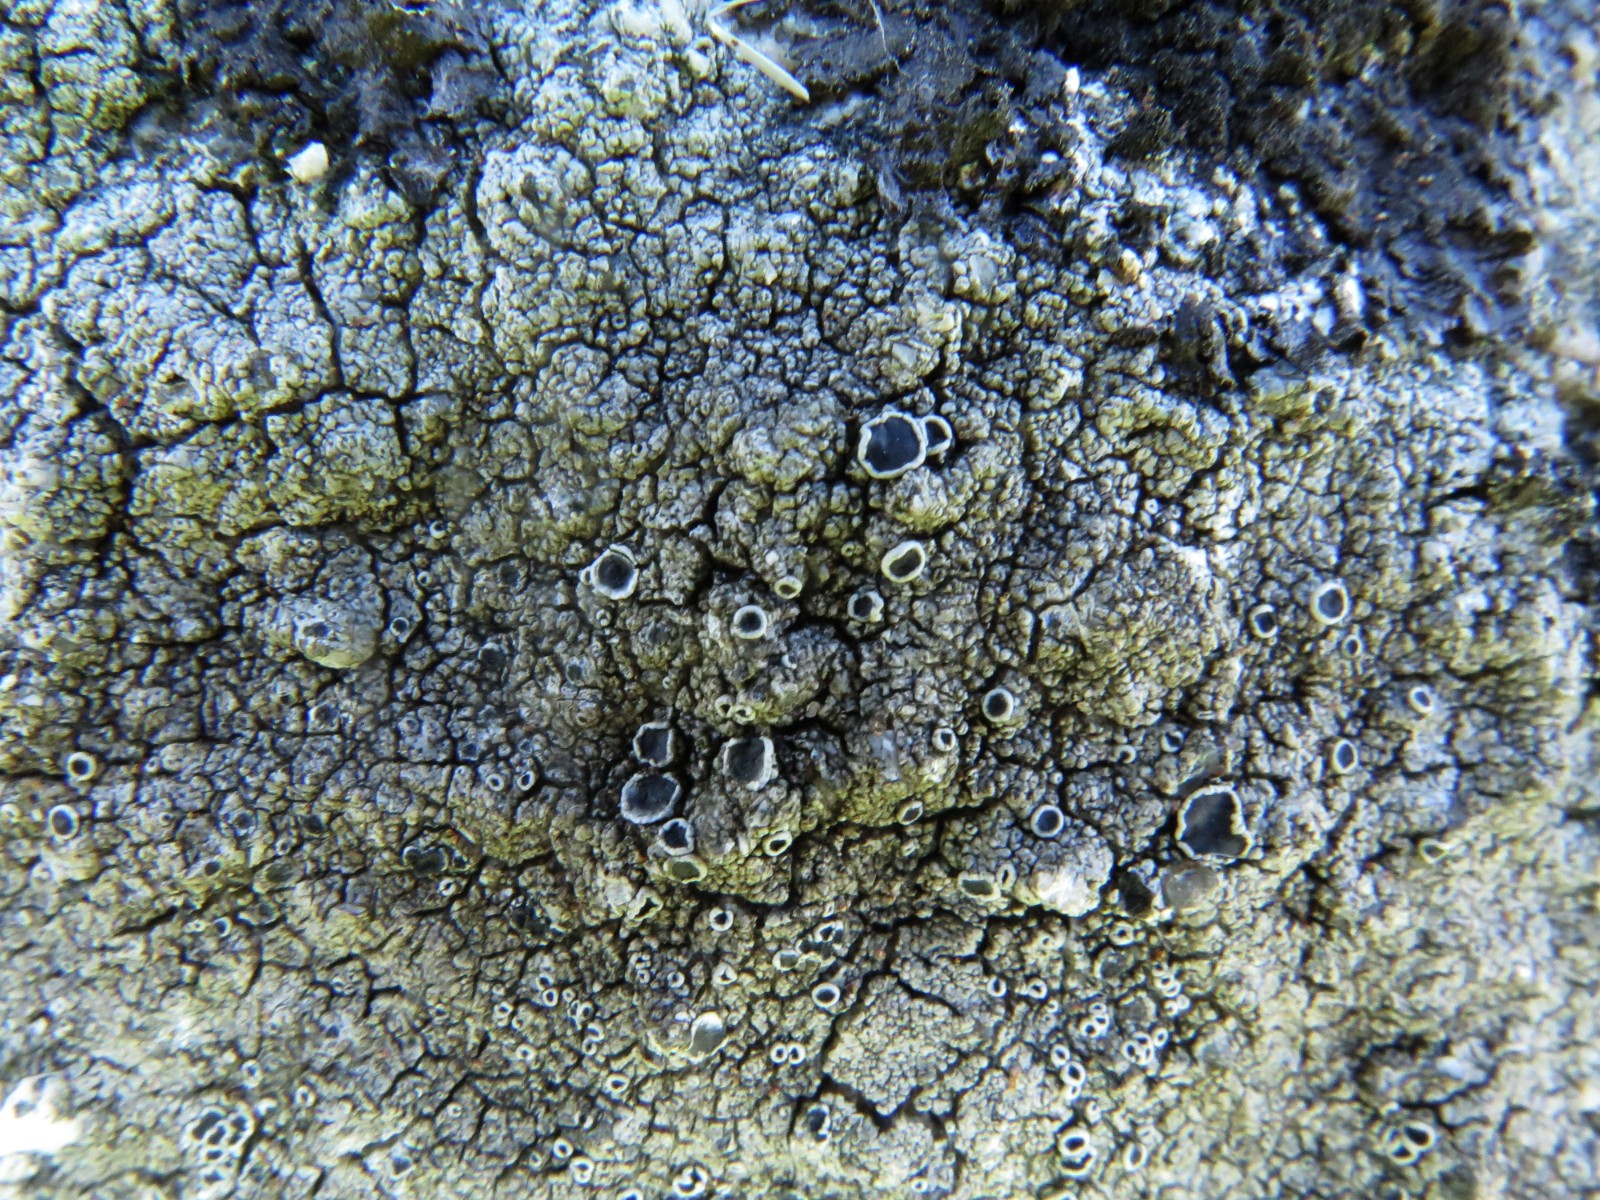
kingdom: Fungi
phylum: Ascomycota
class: Lecanoromycetes
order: Lecanorales
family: Tephromelataceae
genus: Tephromela
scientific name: Tephromela atra
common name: sortfrugtet kantskivelav
